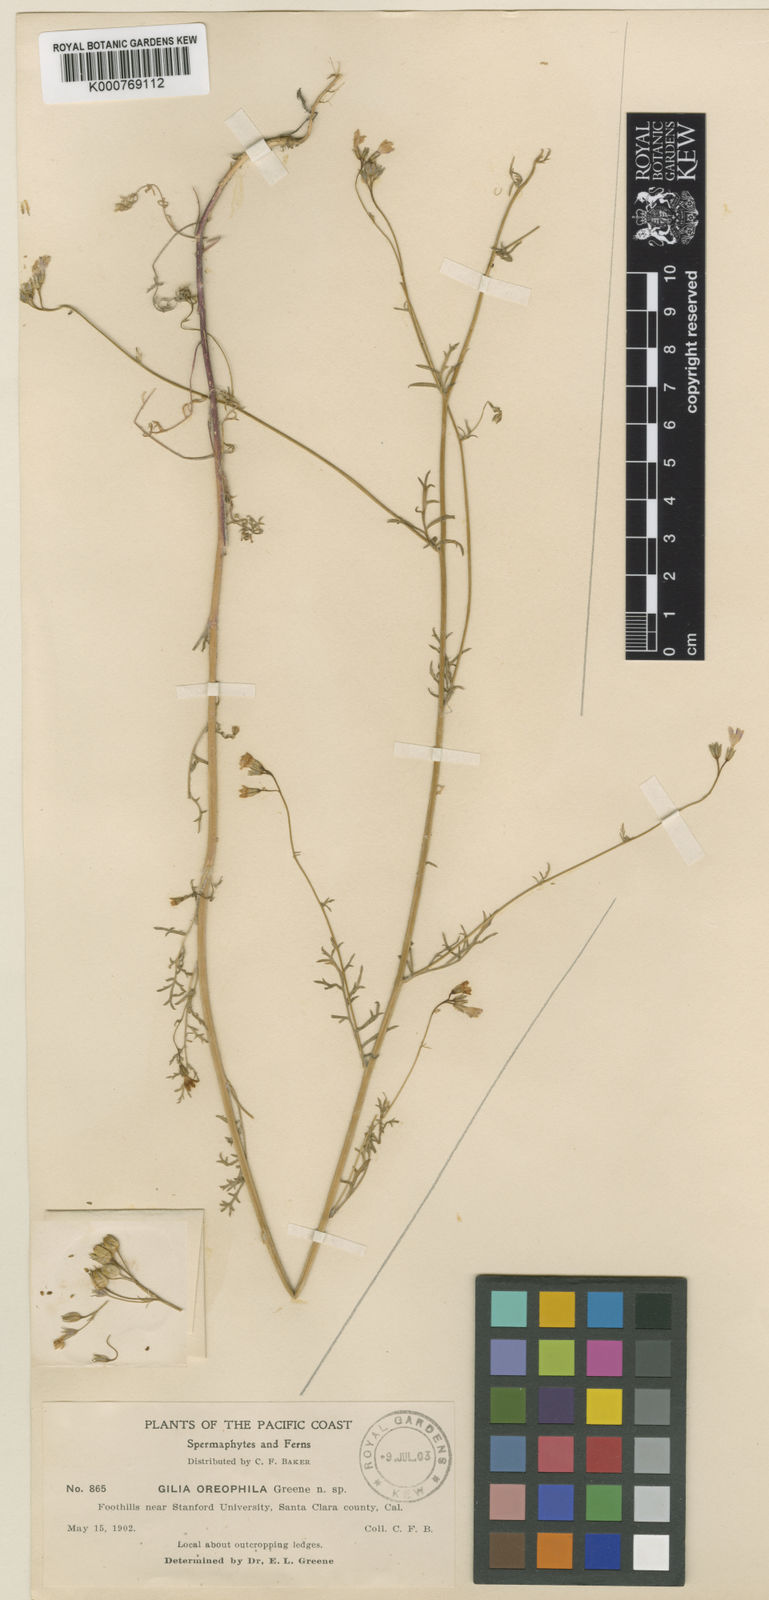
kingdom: Plantae
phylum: Tracheophyta
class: Magnoliopsida
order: Ericales
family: Polemoniaceae
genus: Gilia
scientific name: Gilia inconspicua
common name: Shy gilia
